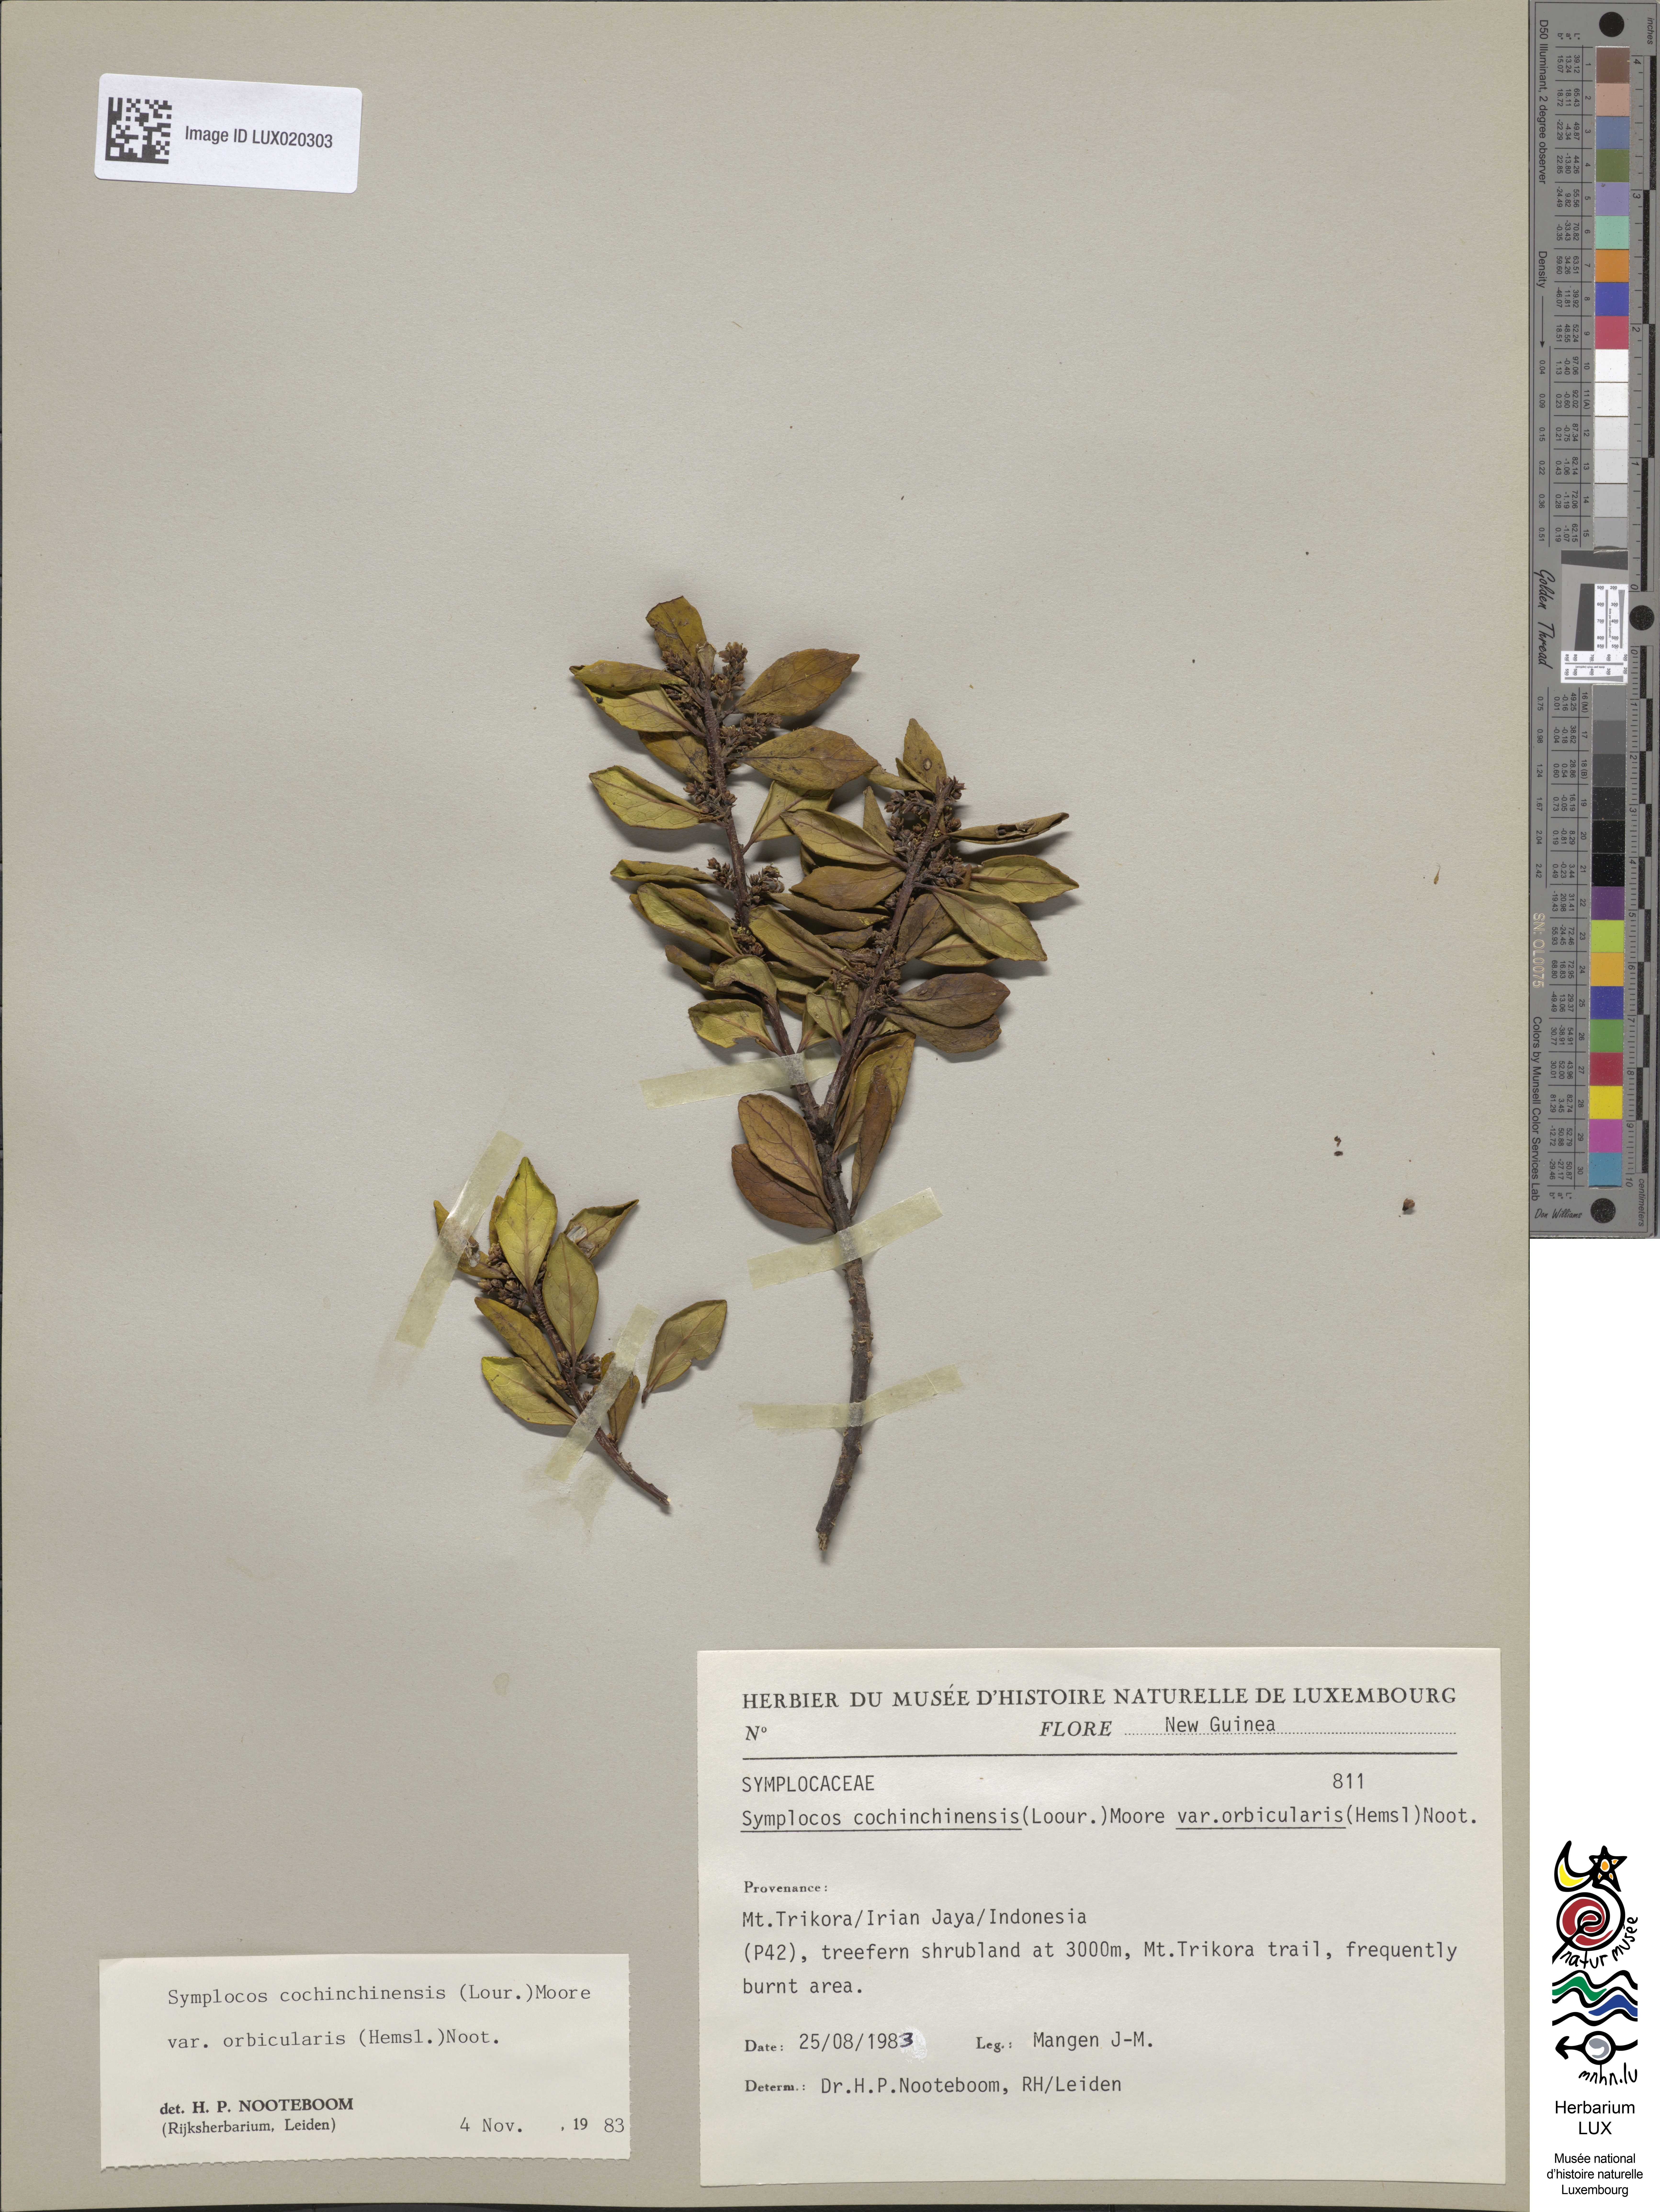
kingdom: Plantae
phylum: Tracheophyta
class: Magnoliopsida
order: Ericales
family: Symplocaceae
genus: Symplocos
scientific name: Symplocos orbicularis
